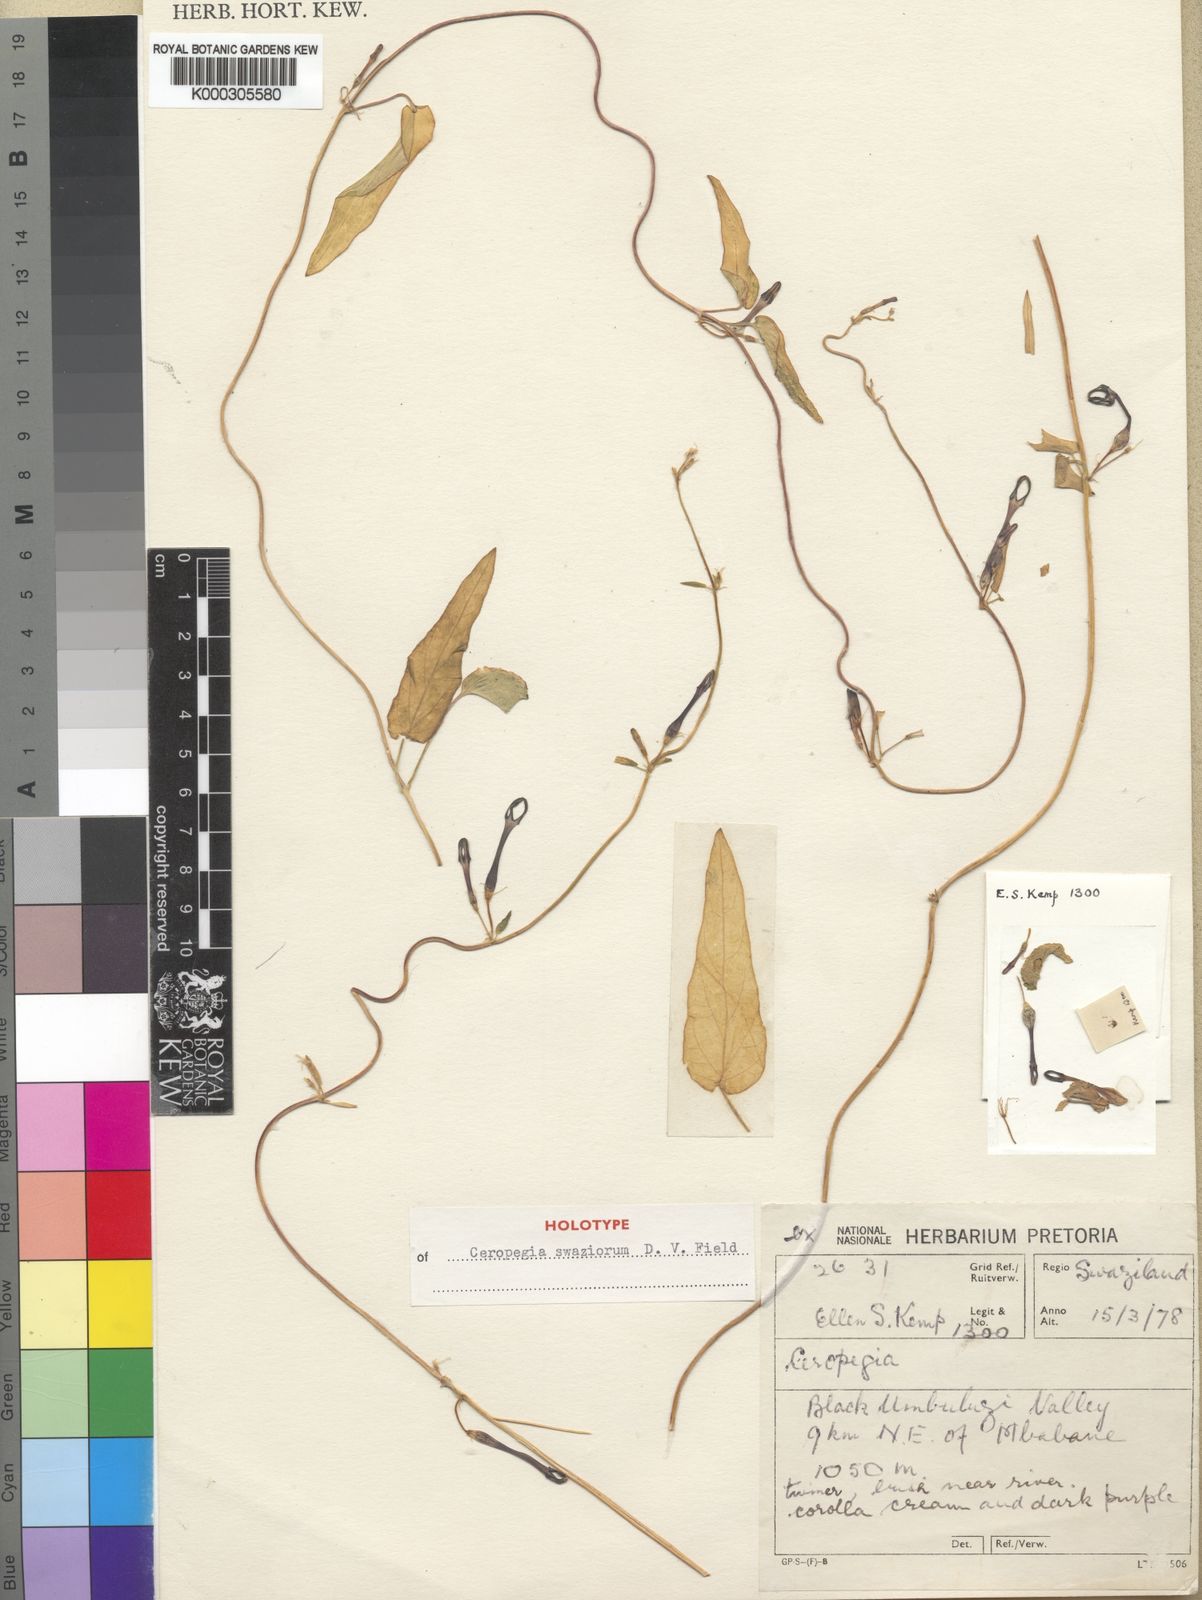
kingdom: Plantae
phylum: Tracheophyta
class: Magnoliopsida
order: Gentianales
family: Apocynaceae
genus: Ceropegia
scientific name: Ceropegia swaziorum
